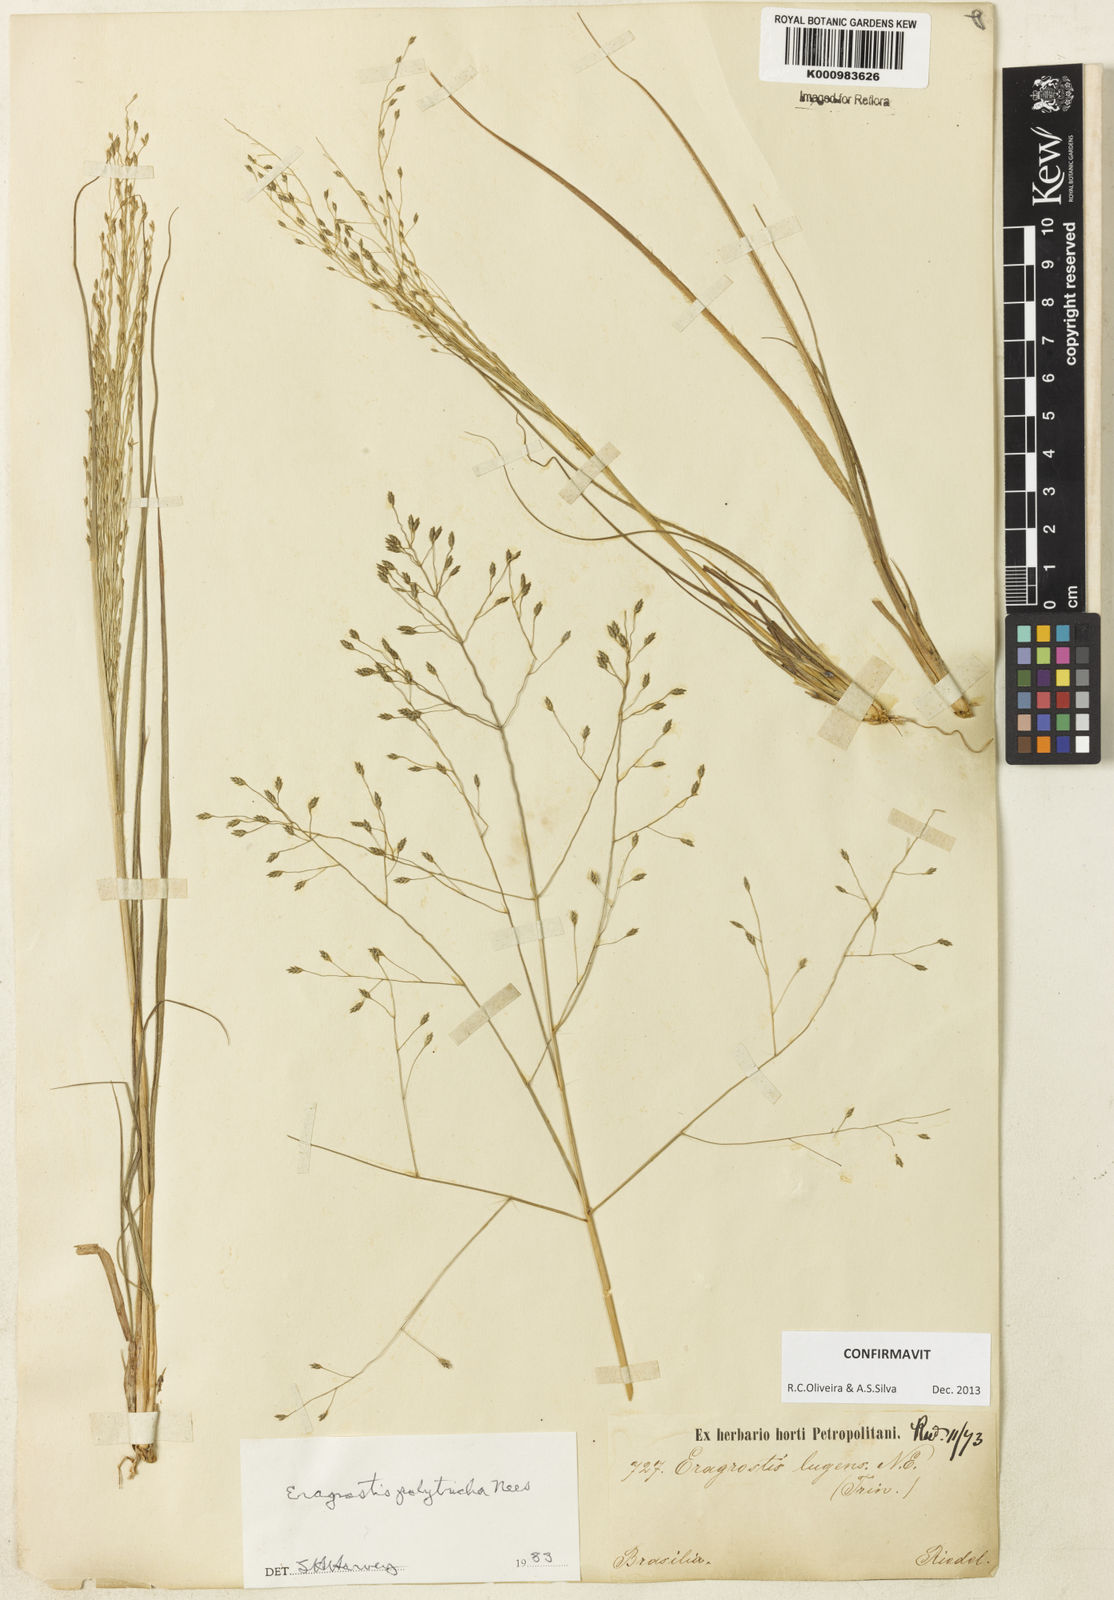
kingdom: Plantae
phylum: Tracheophyta
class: Liliopsida
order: Poales
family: Poaceae
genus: Eragrostis
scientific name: Eragrostis polytricha
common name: Hairy-sheath love grass
